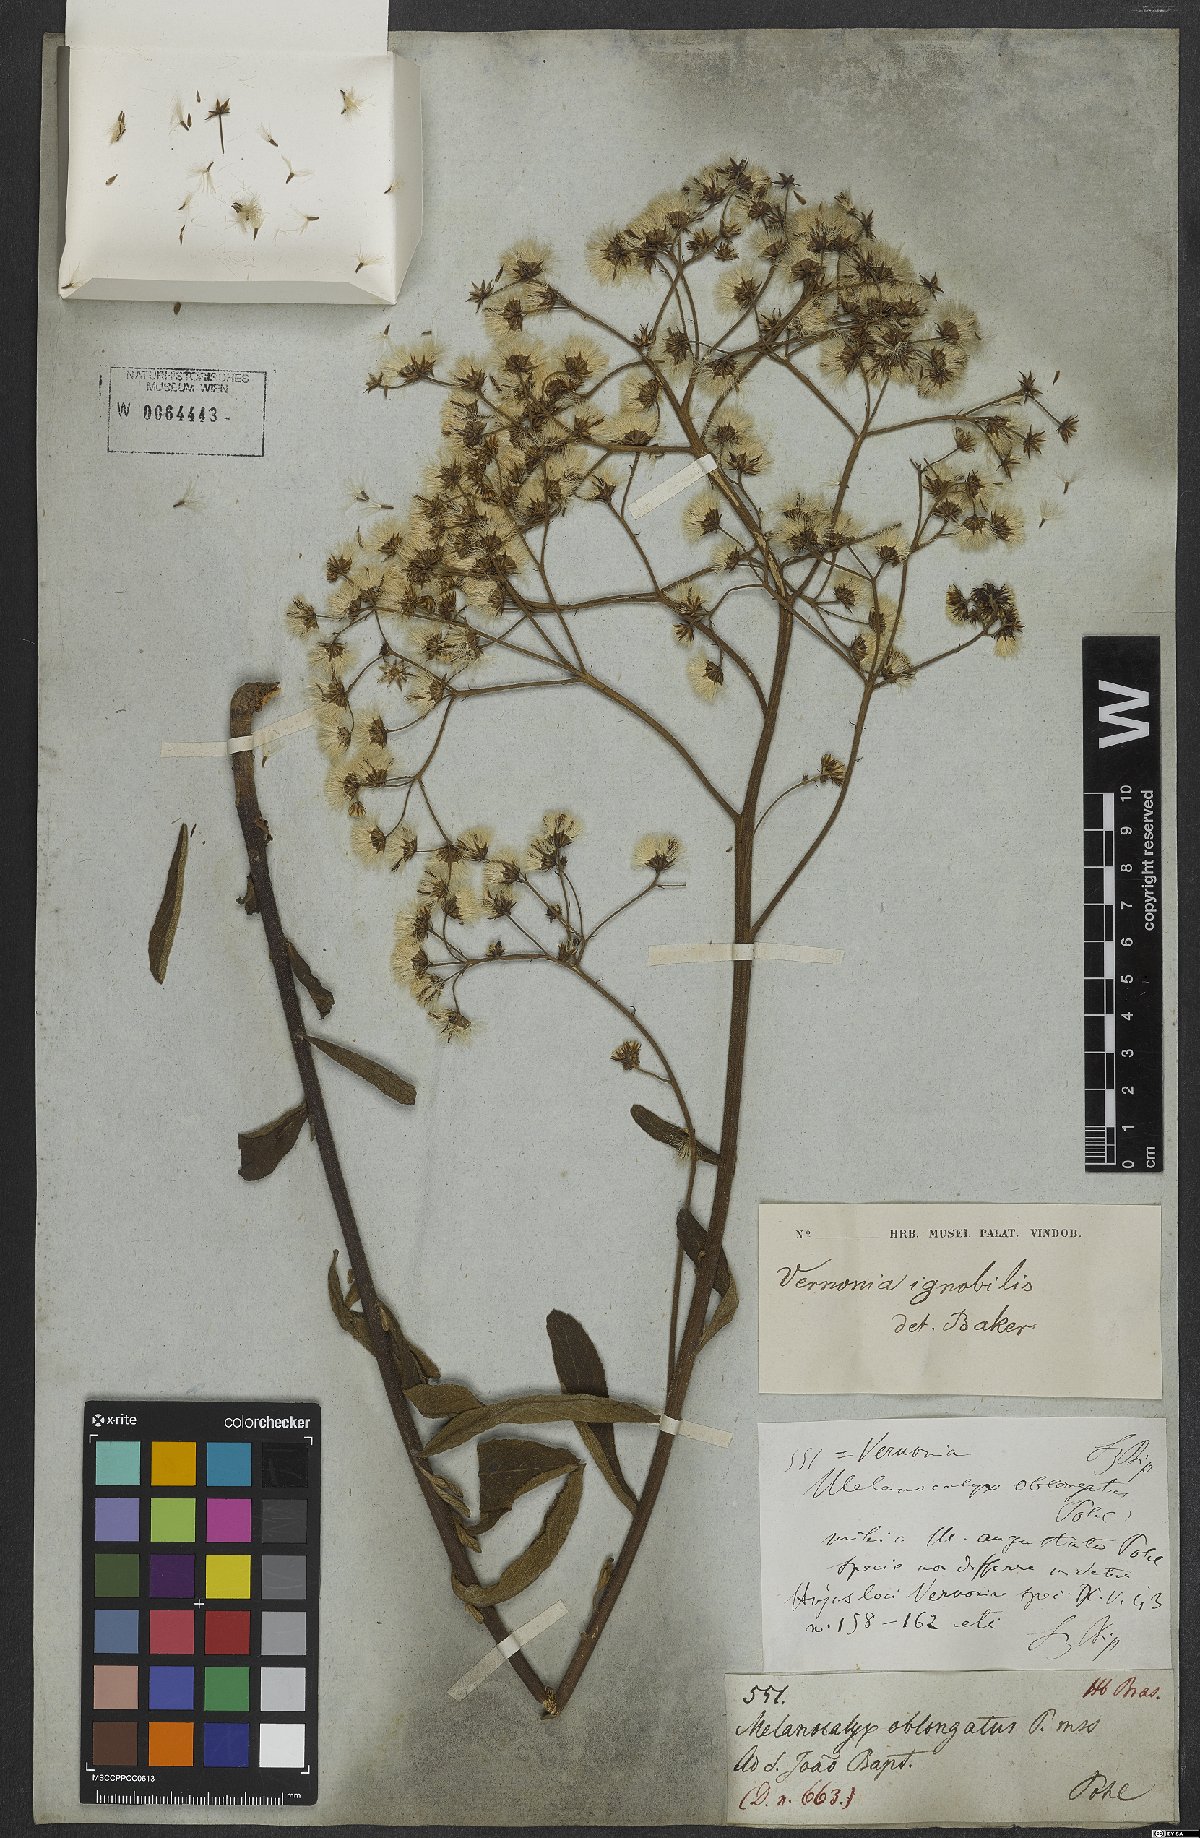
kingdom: Plantae
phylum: Tracheophyta
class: Magnoliopsida
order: Asterales
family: Asteraceae
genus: Vernonanthura
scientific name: Vernonanthura ignobilis
